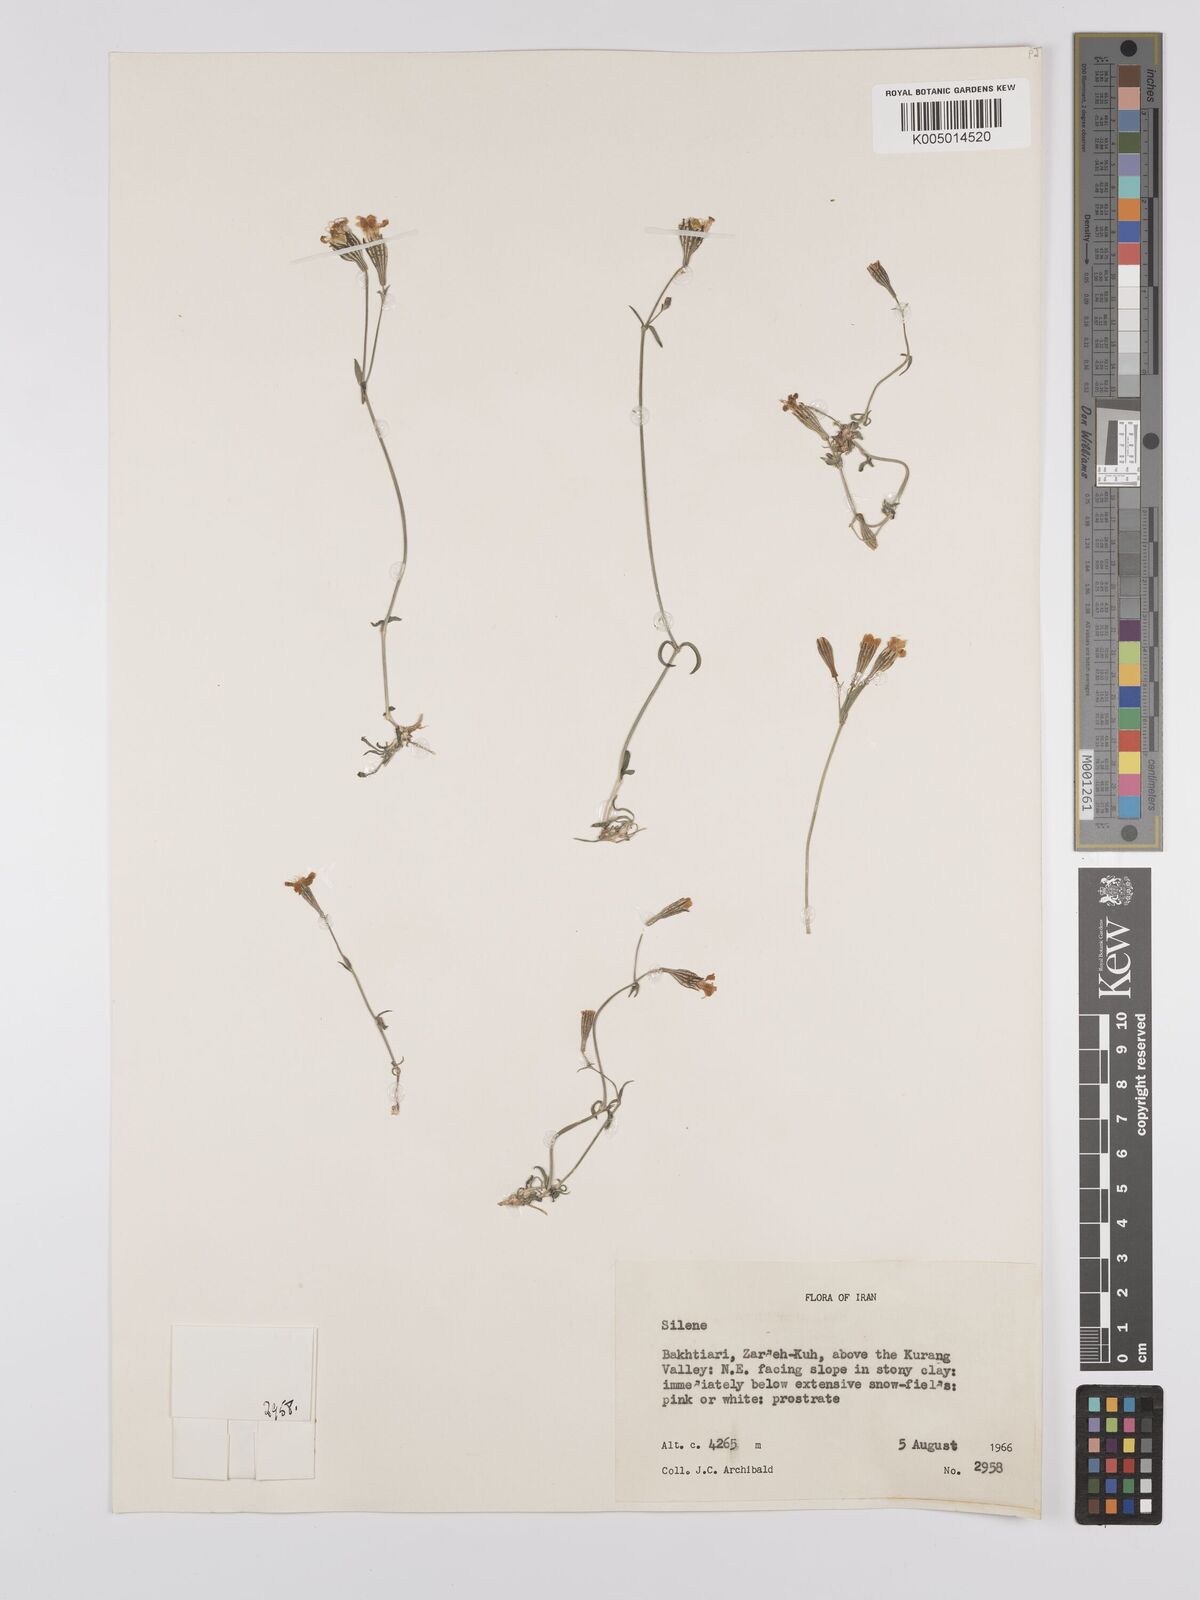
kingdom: Plantae
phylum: Tracheophyta
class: Magnoliopsida
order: Caryophyllales
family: Caryophyllaceae
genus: Silene
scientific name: Silene
